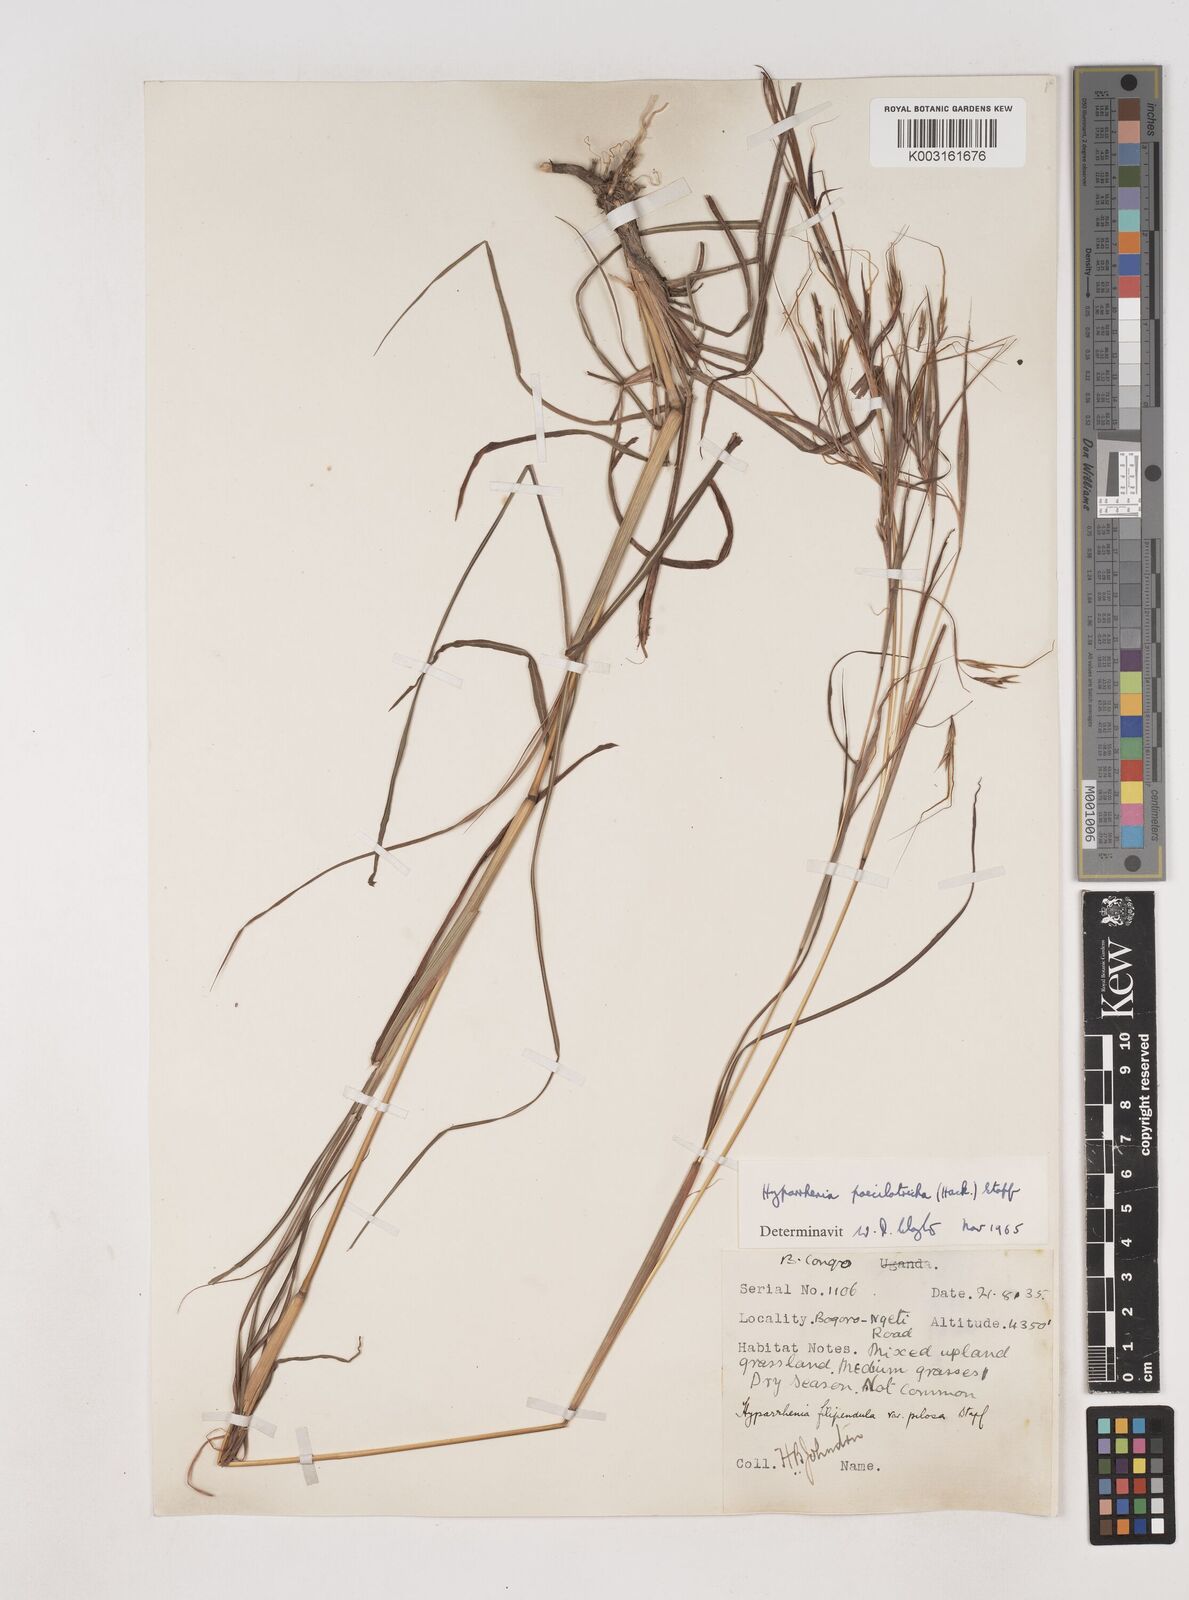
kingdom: Plantae
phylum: Tracheophyta
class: Liliopsida
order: Poales
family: Poaceae
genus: Hyparrhenia
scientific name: Hyparrhenia poecilotricha
